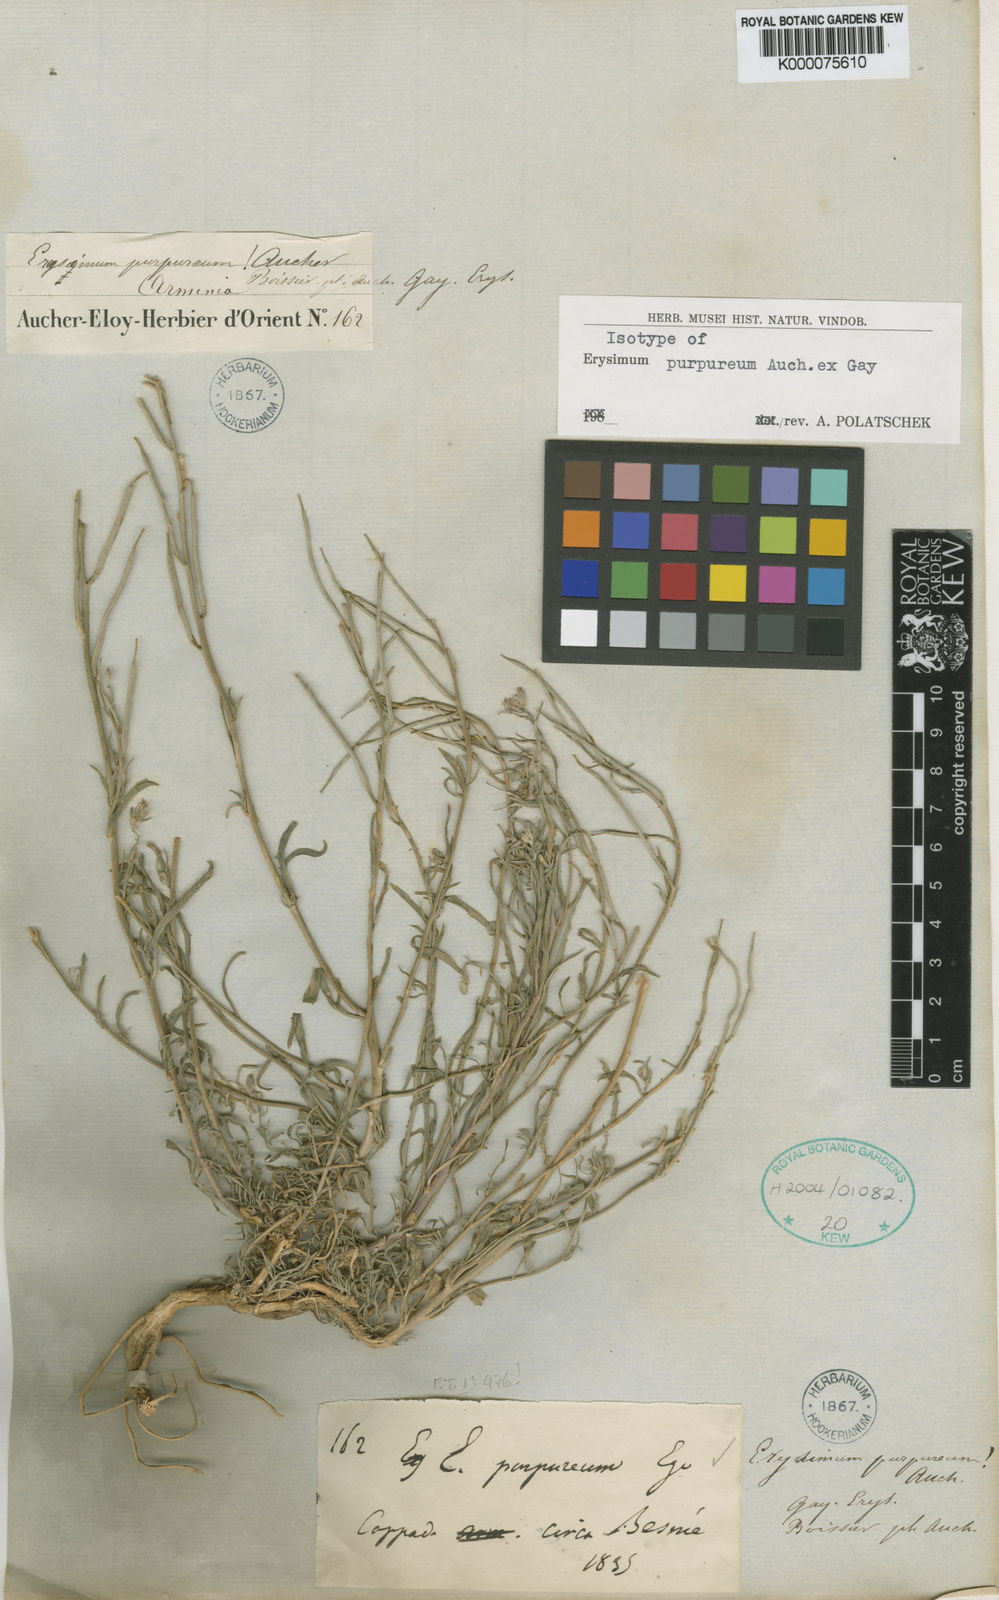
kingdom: Plantae
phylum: Tracheophyta
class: Magnoliopsida
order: Brassicales
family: Brassicaceae
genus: Erysimum
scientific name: Erysimum
